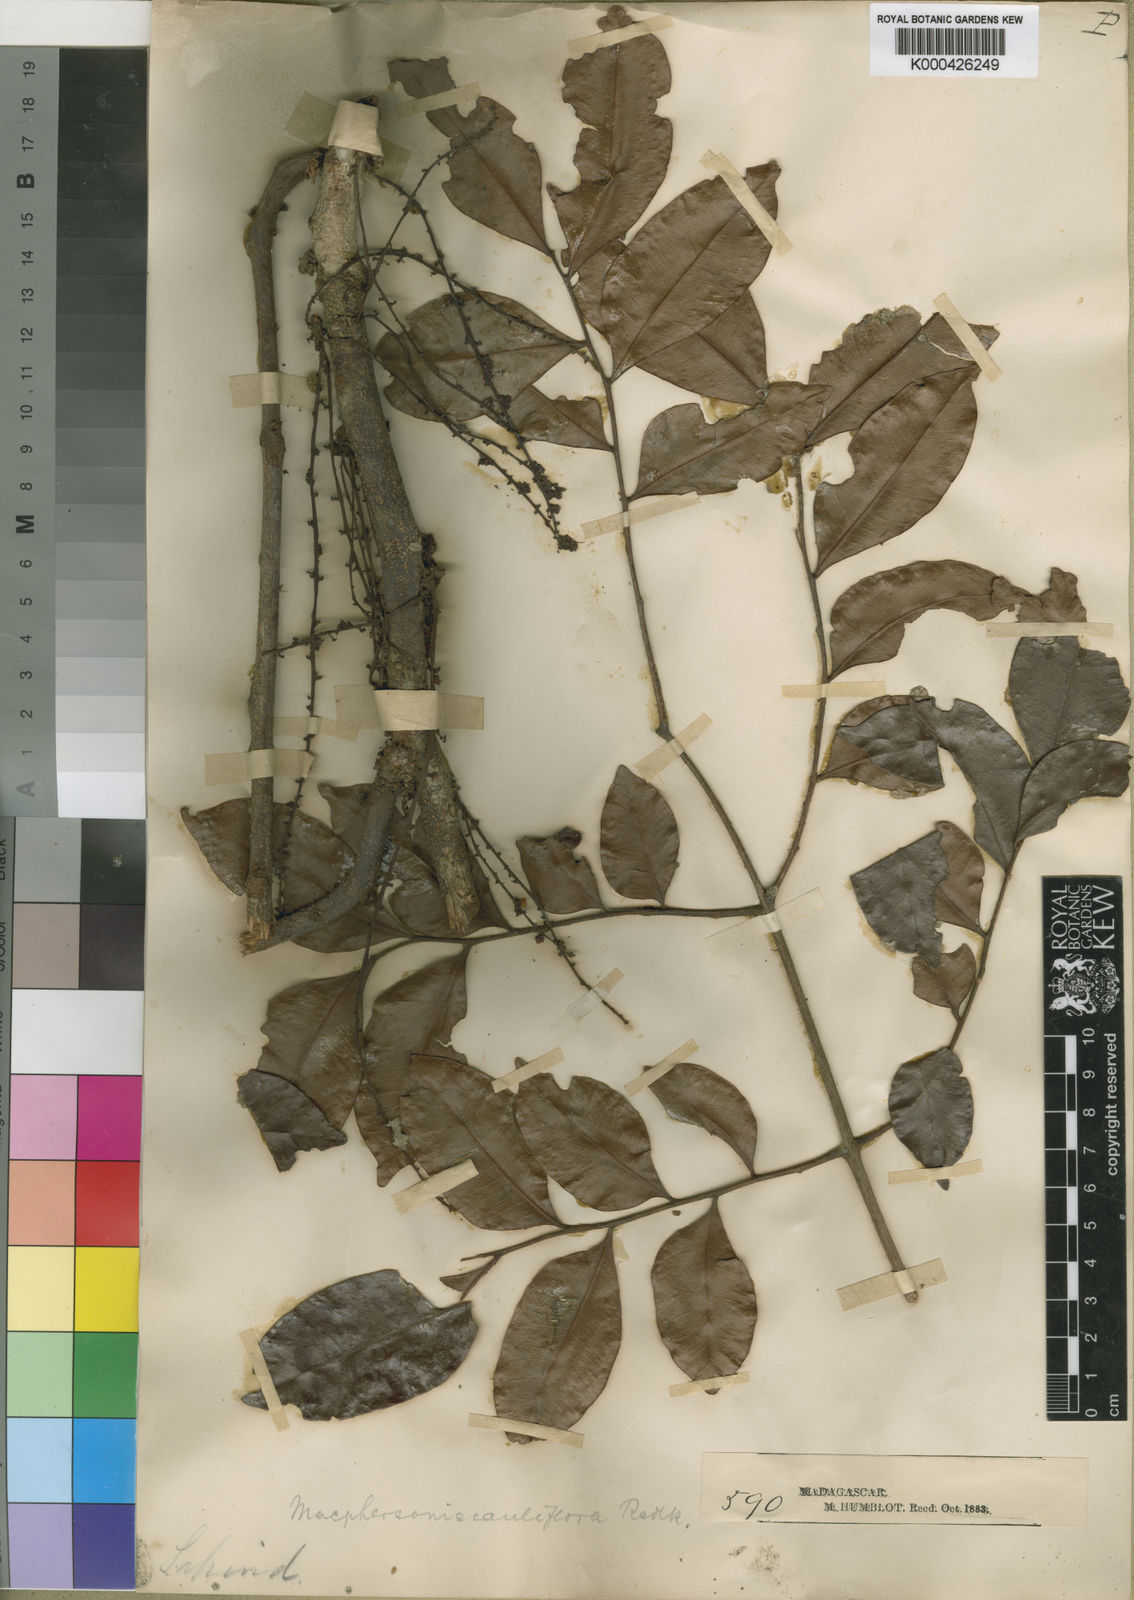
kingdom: Plantae
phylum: Tracheophyta
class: Magnoliopsida
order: Sapindales
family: Sapindaceae
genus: Macphersonia
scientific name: Macphersonia cauliflora
